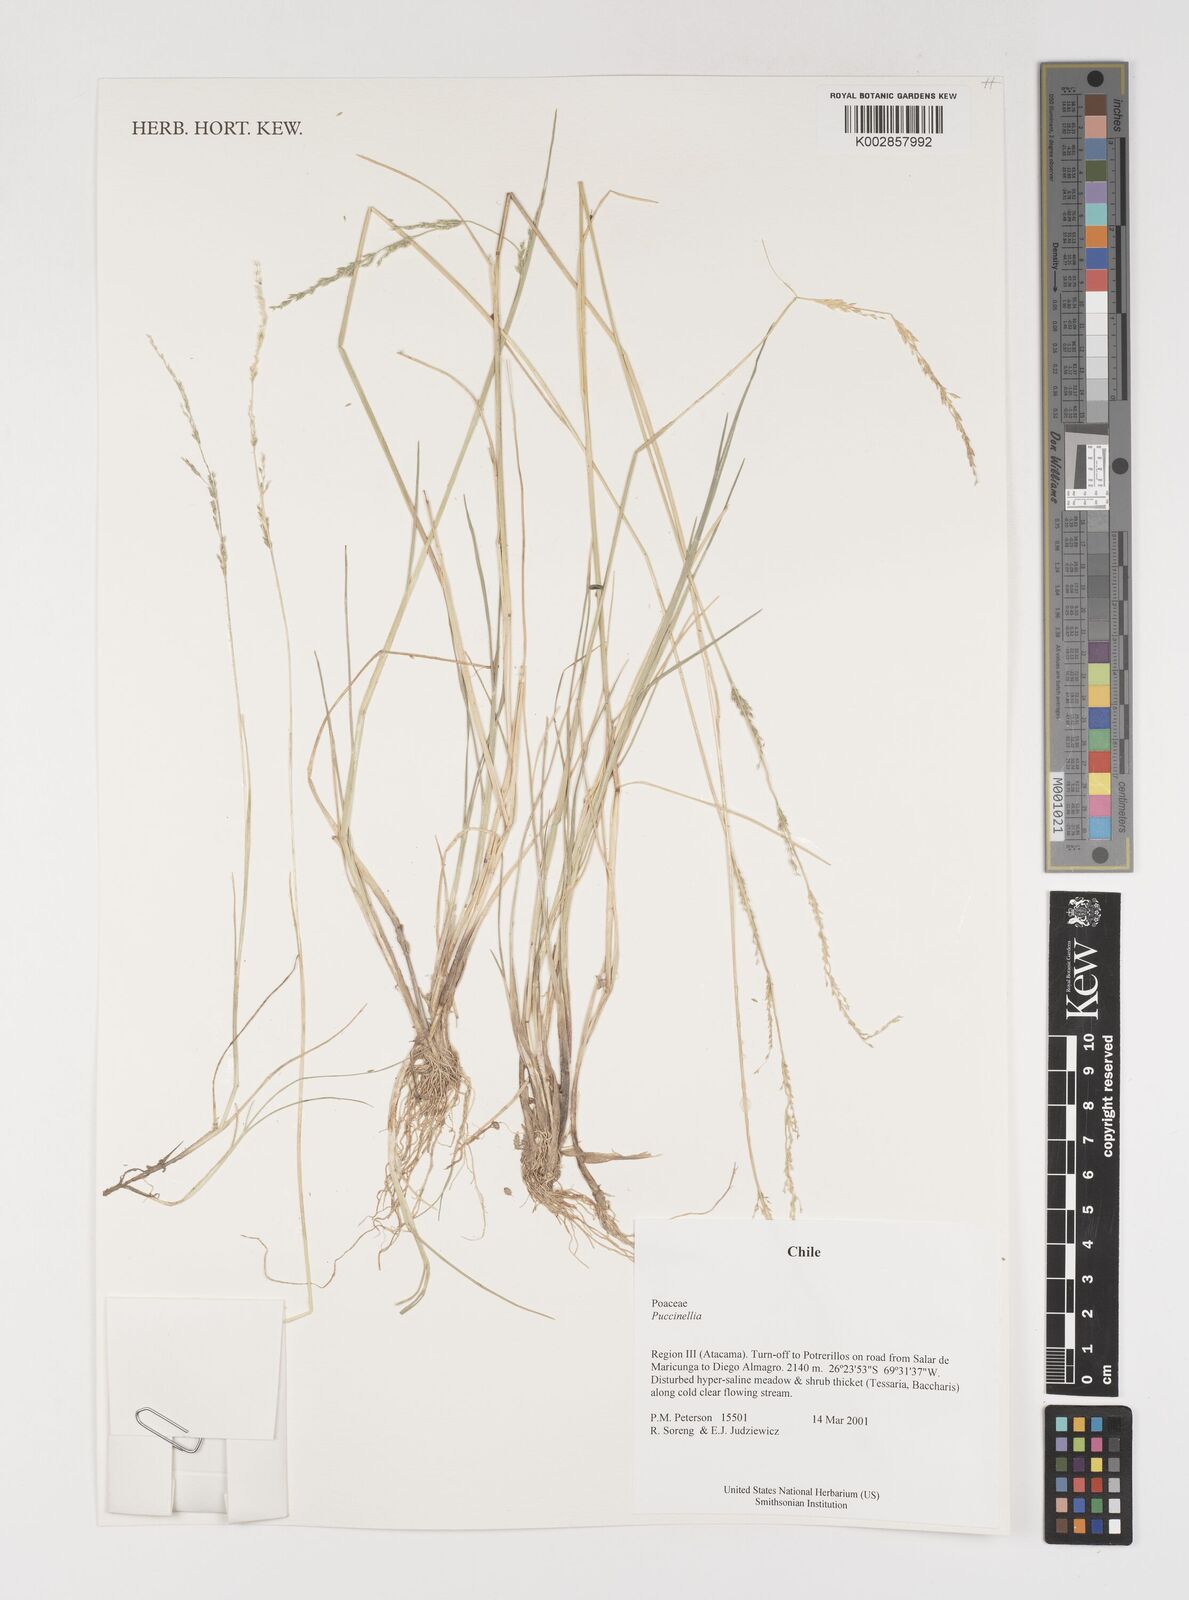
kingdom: Plantae
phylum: Tracheophyta
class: Liliopsida
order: Poales
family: Poaceae
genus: Puccinellia
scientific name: Puccinellia
